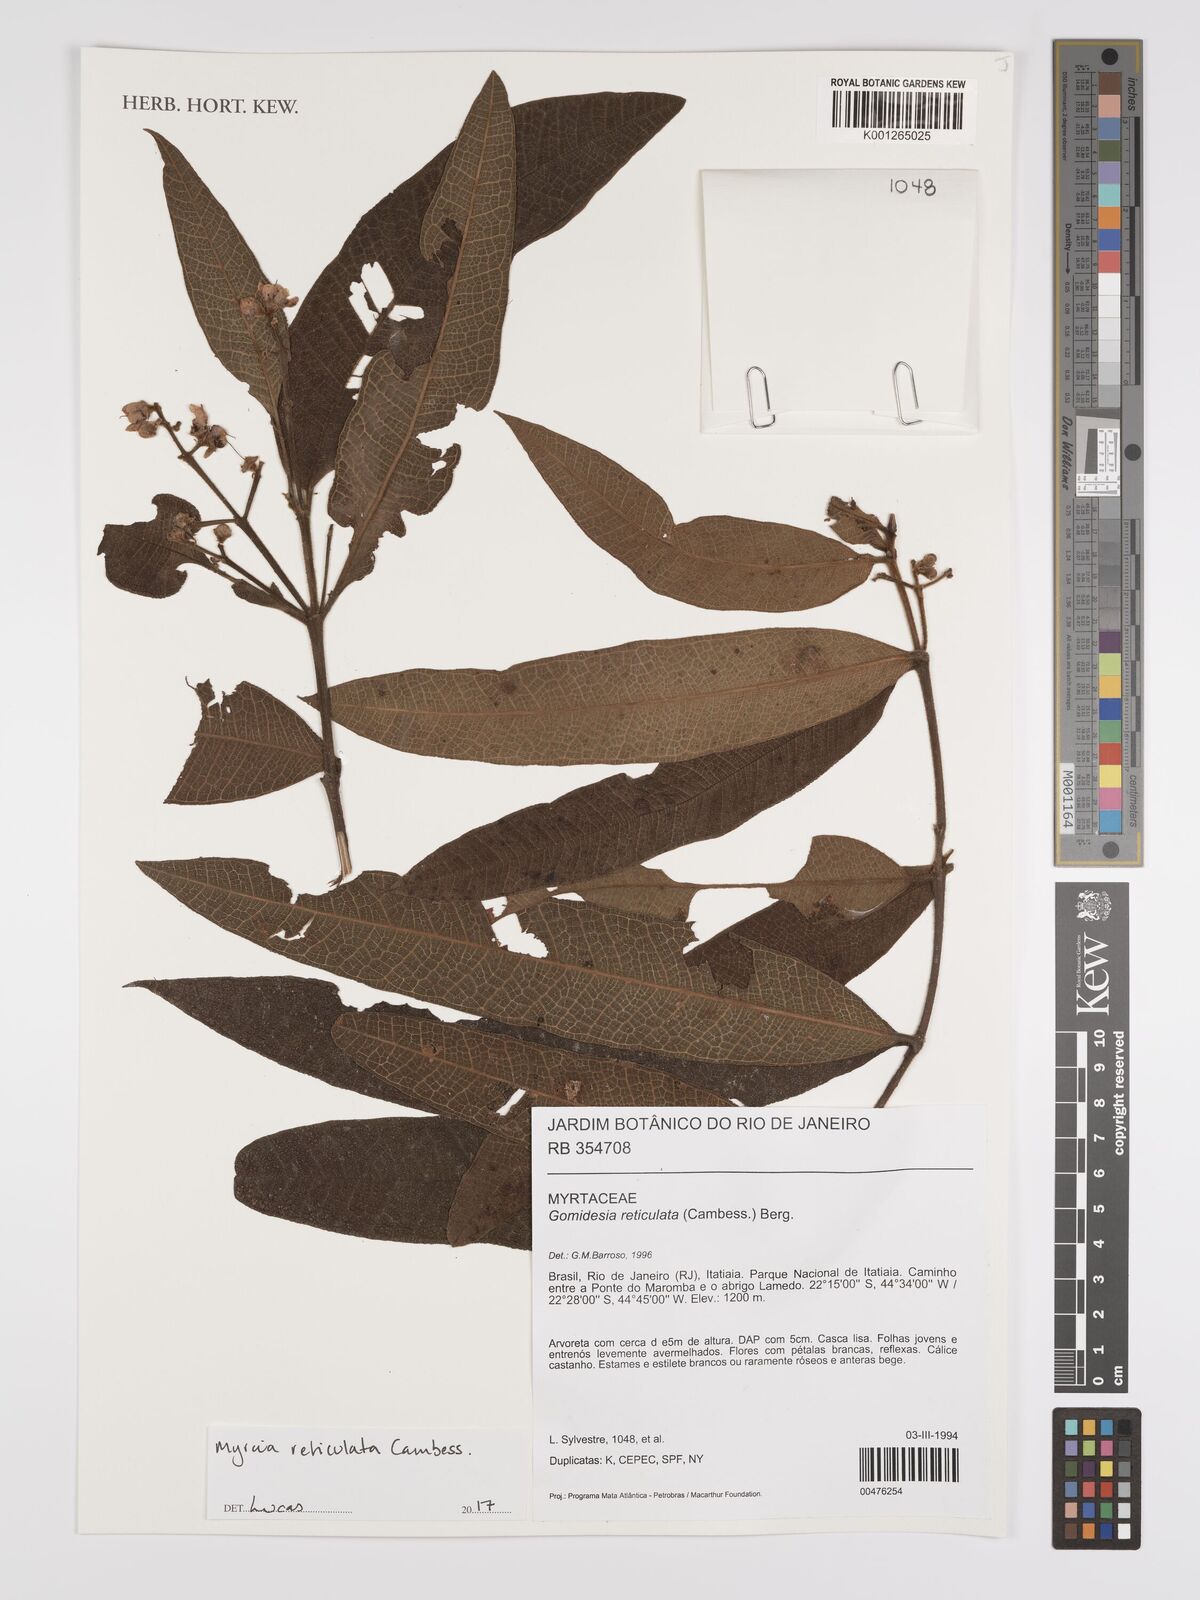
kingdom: Plantae
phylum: Tracheophyta
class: Magnoliopsida
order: Myrtales
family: Myrtaceae
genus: Myrcia
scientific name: Myrcia reticulata
